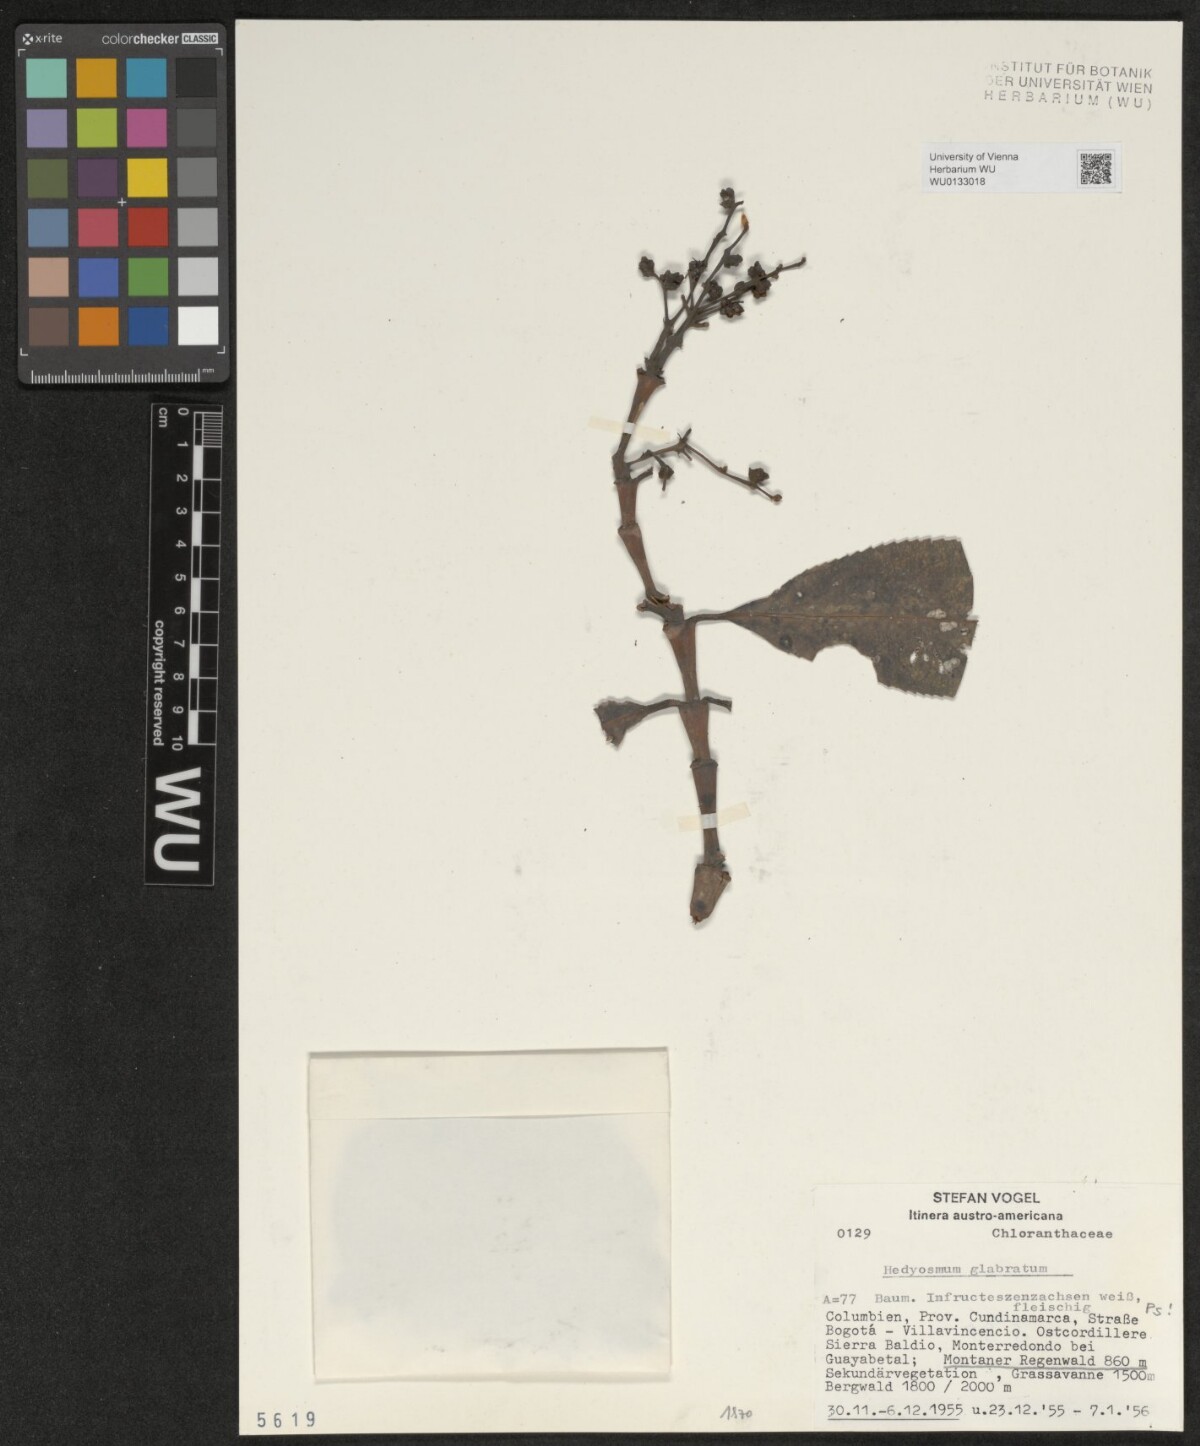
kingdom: Plantae
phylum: Tracheophyta
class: Magnoliopsida
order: Chloranthales
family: Chloranthaceae
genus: Hedyosmum
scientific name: Hedyosmum racemosum
